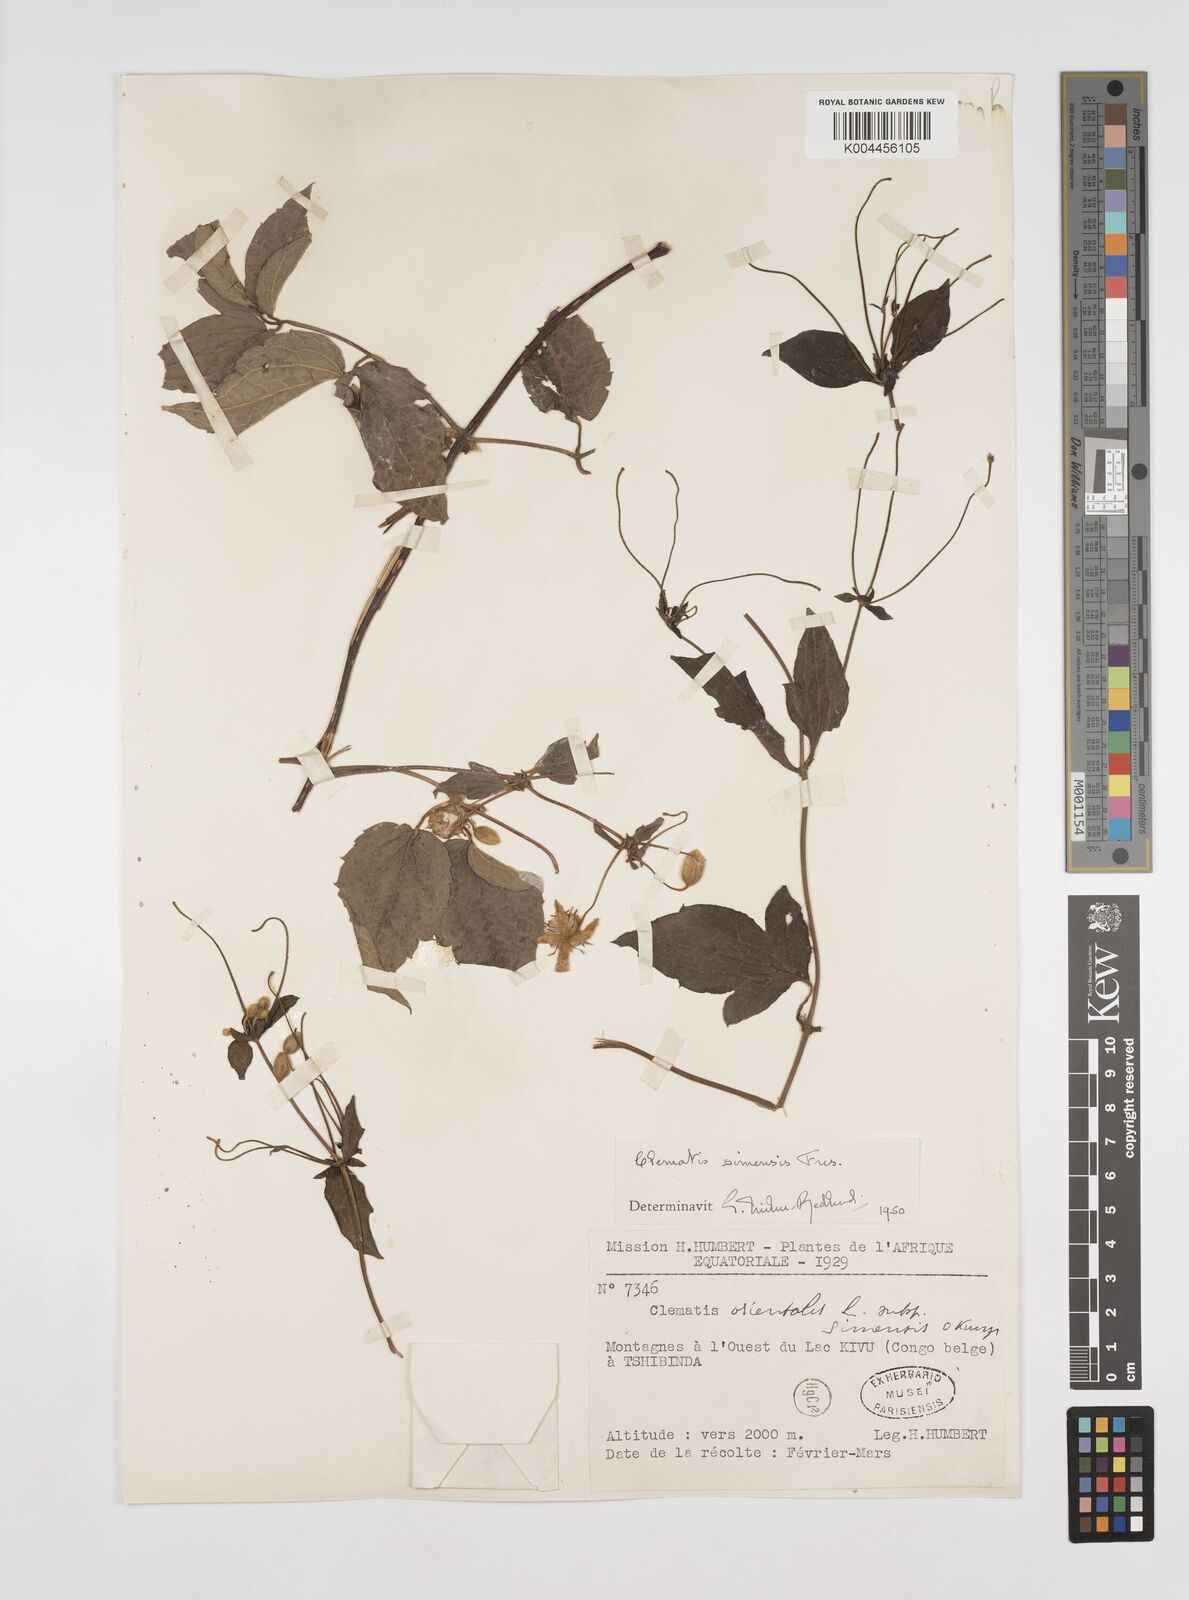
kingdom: Plantae
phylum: Tracheophyta
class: Magnoliopsida
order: Ranunculales
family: Ranunculaceae
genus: Clematis
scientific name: Clematis simensis
